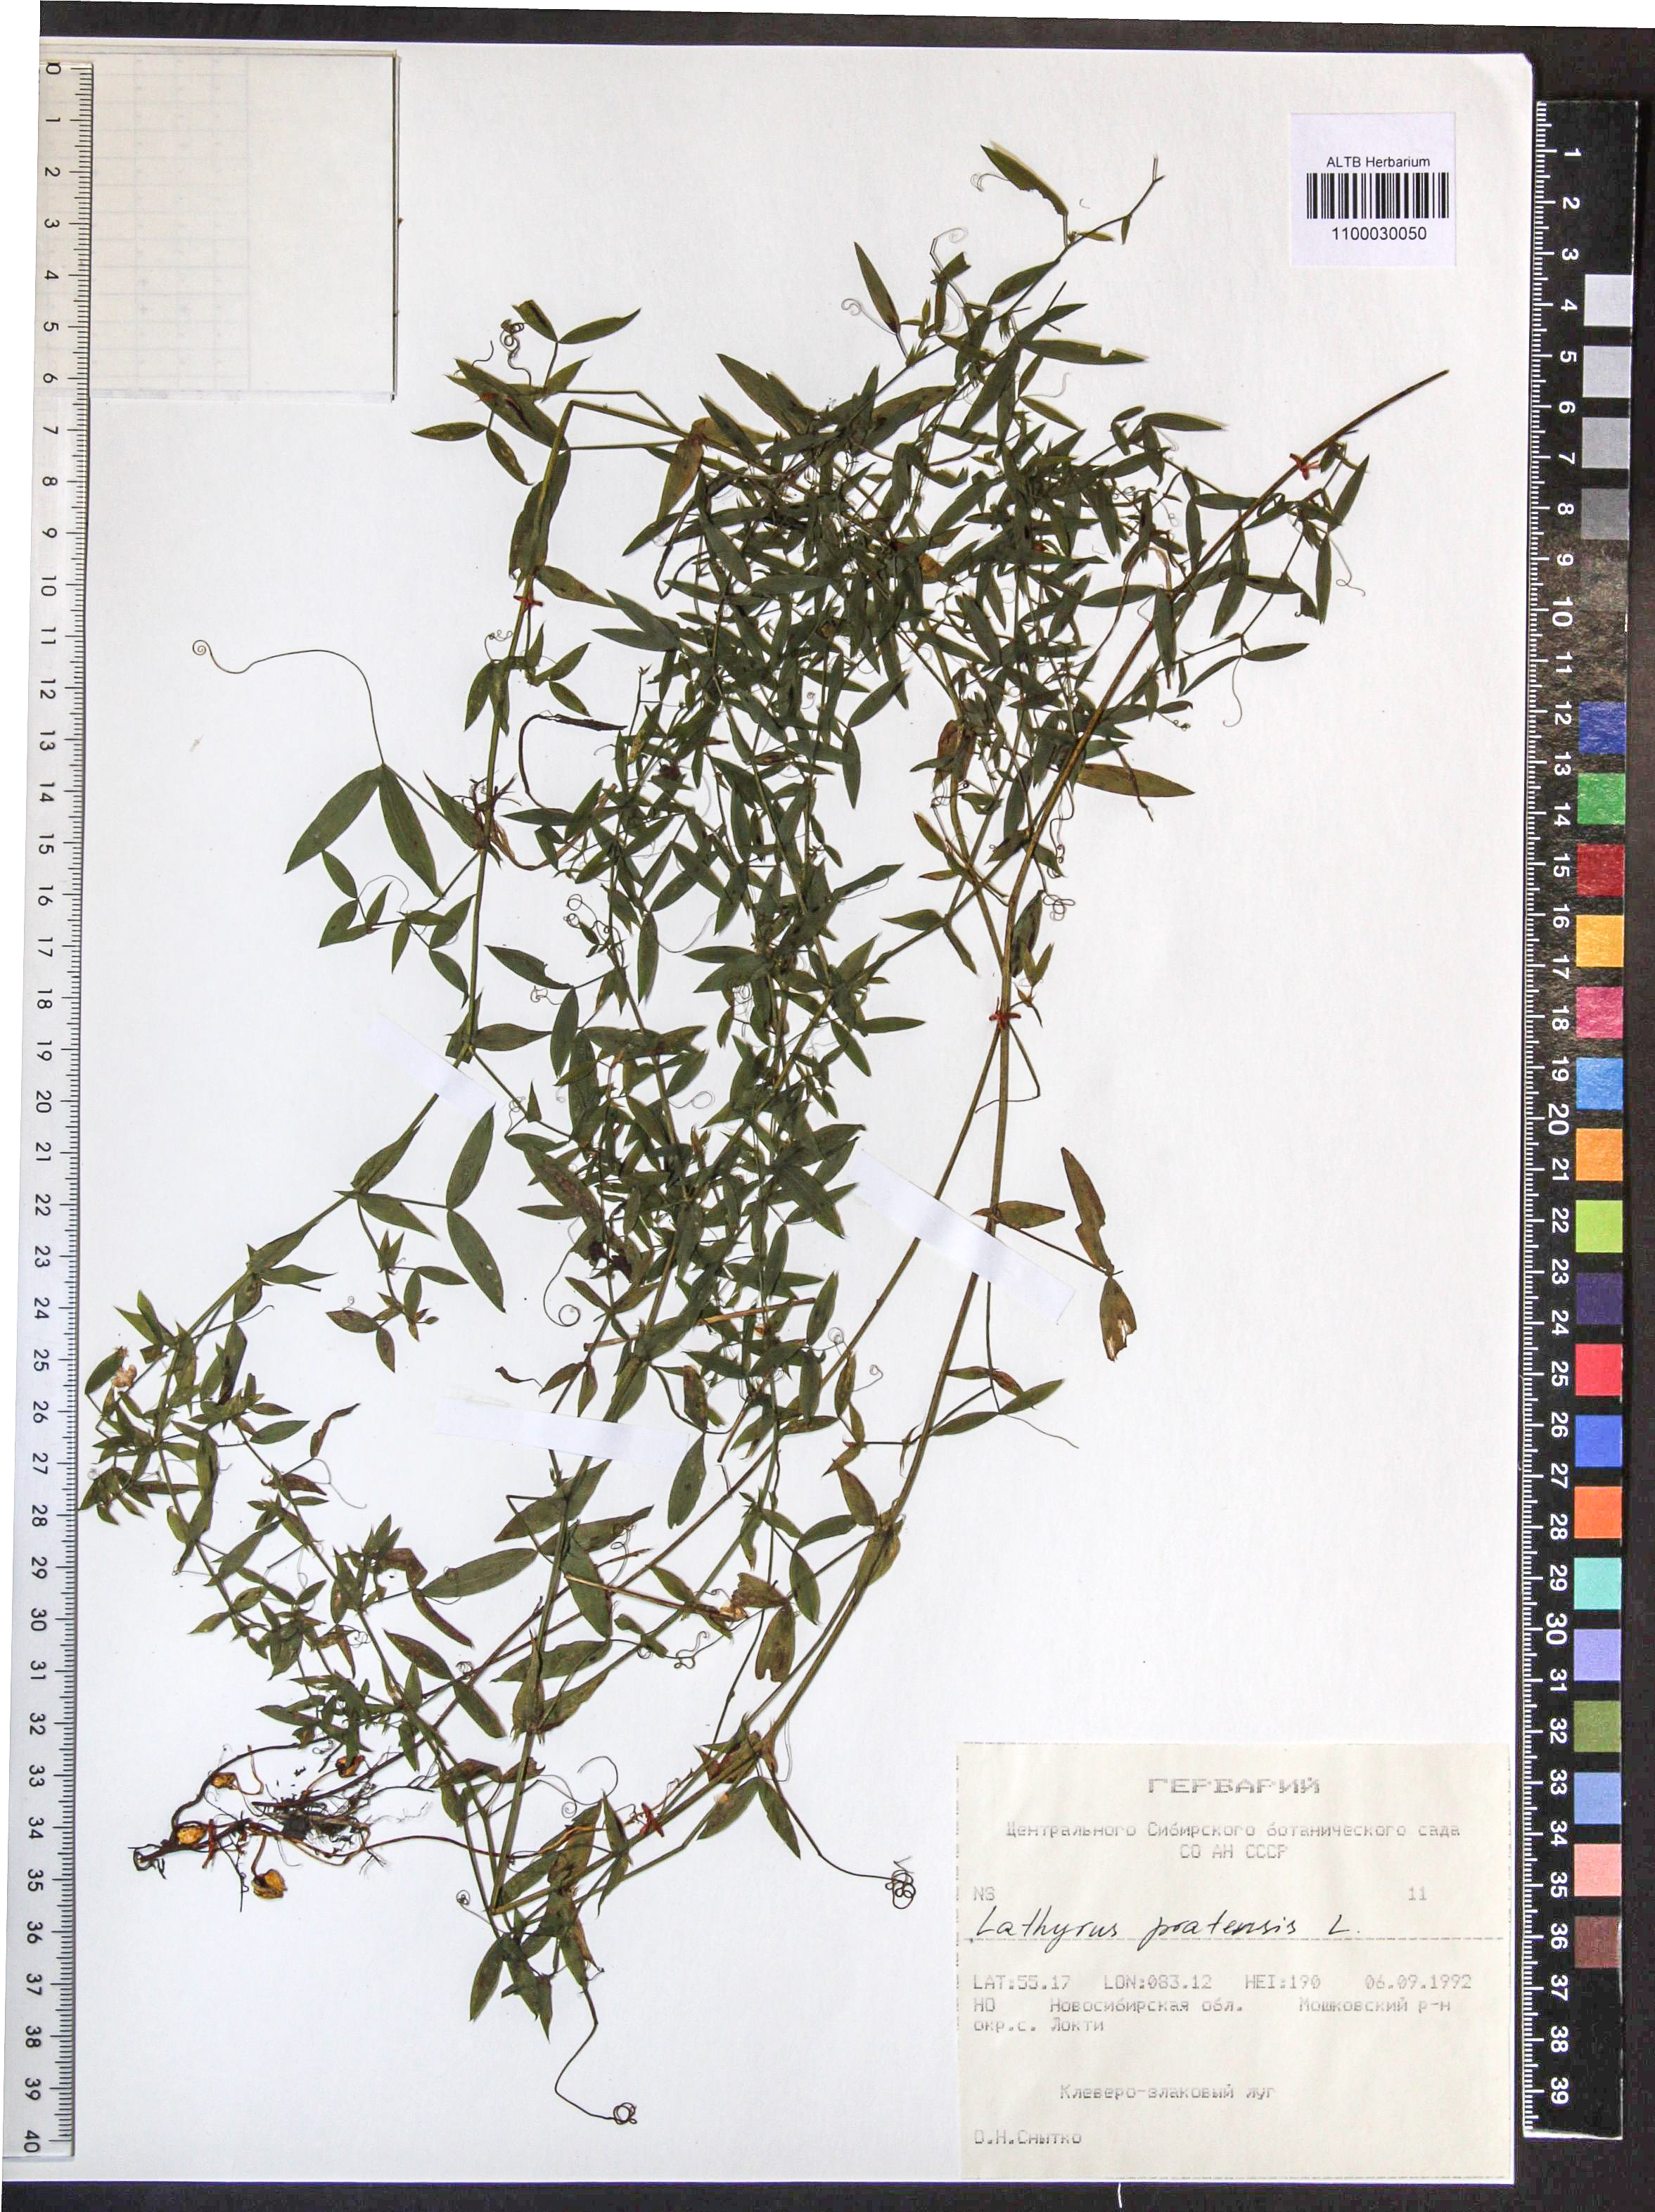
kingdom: Plantae
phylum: Tracheophyta
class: Magnoliopsida
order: Fabales
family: Fabaceae
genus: Lathyrus
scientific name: Lathyrus pratensis
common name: Meadow vetchling
